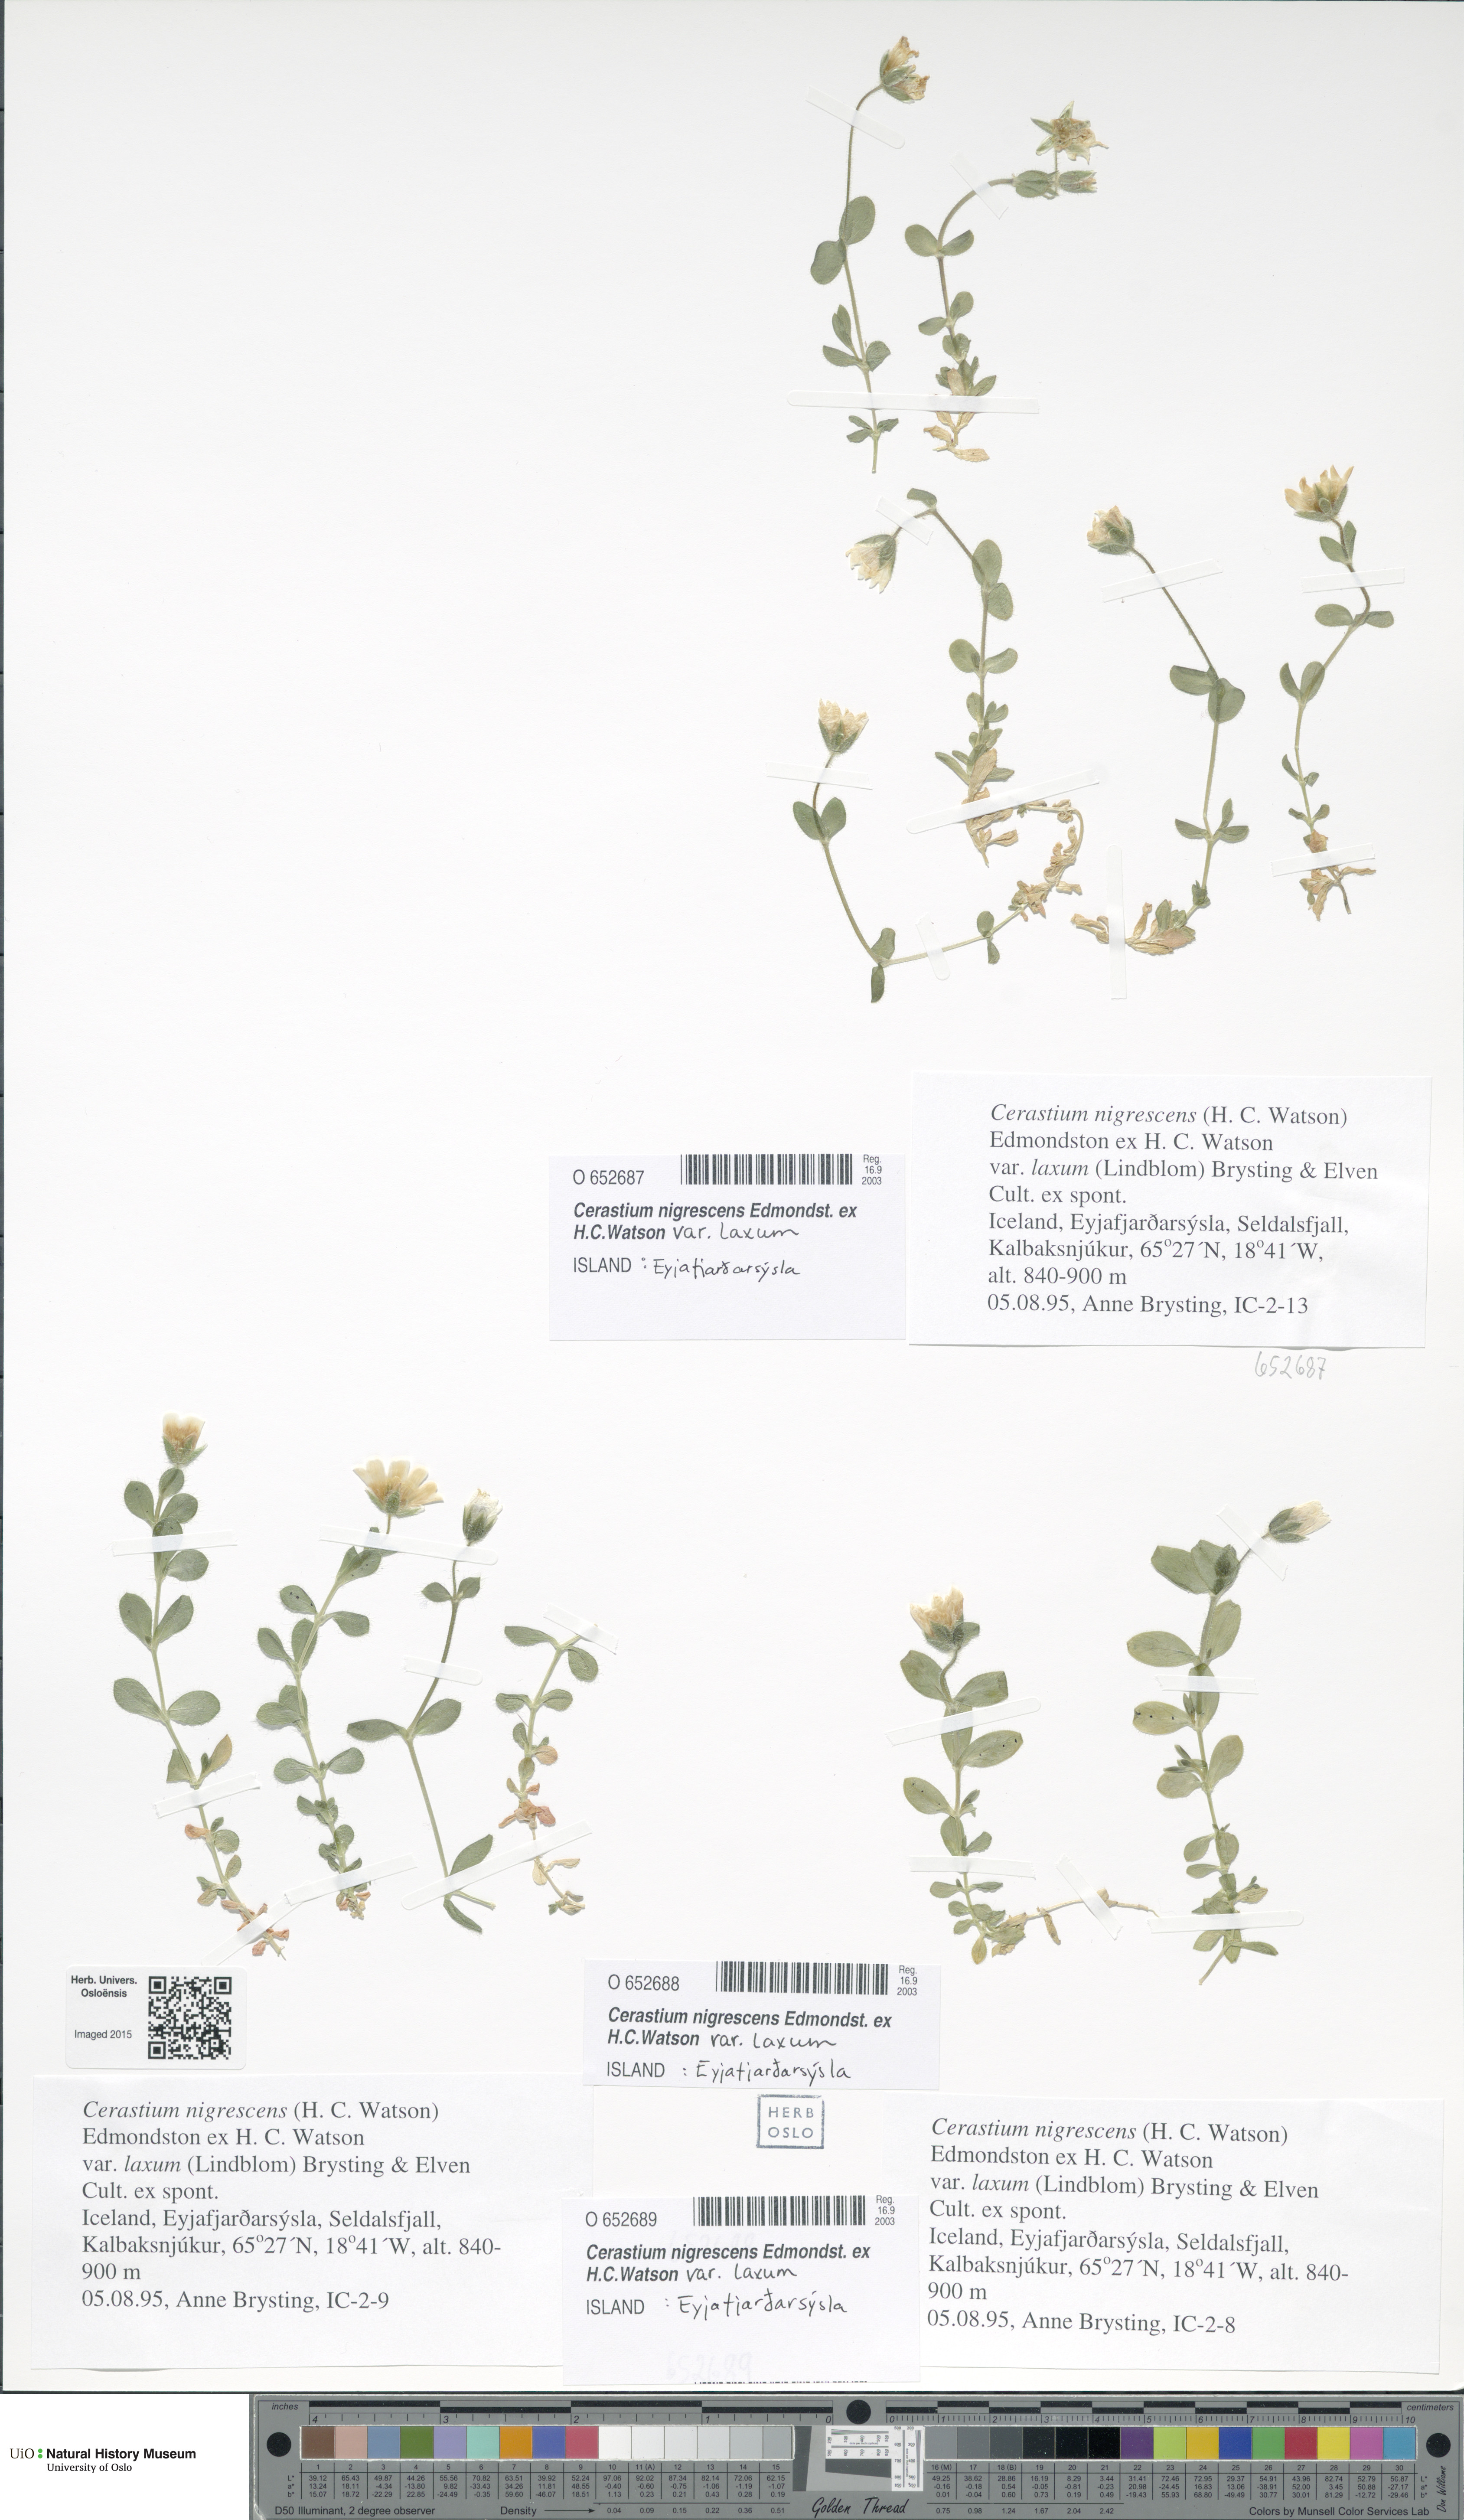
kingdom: Plantae
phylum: Tracheophyta
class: Magnoliopsida
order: Caryophyllales
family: Caryophyllaceae
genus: Cerastium
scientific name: Cerastium nigrescens
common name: Shetland mouse-ear
